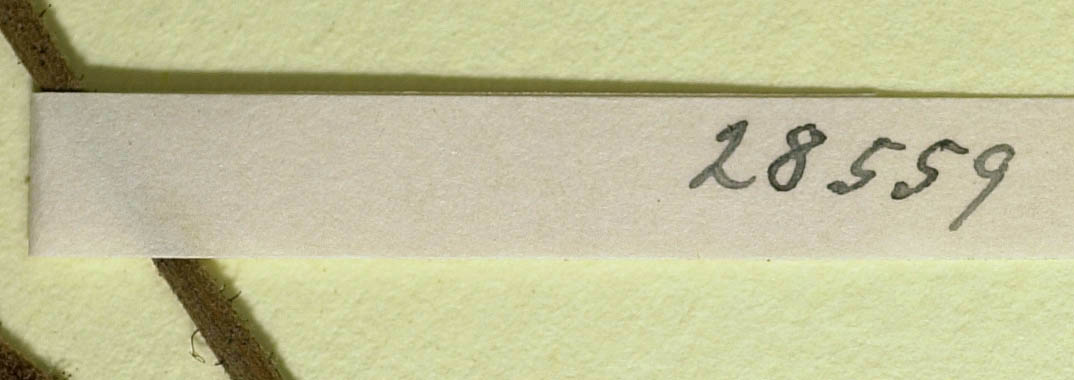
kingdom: Plantae
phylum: Tracheophyta
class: Magnoliopsida
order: Asterales
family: Asteraceae
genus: Pilosella
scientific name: Pilosella officinarum
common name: Mouse-ear hawkweed
